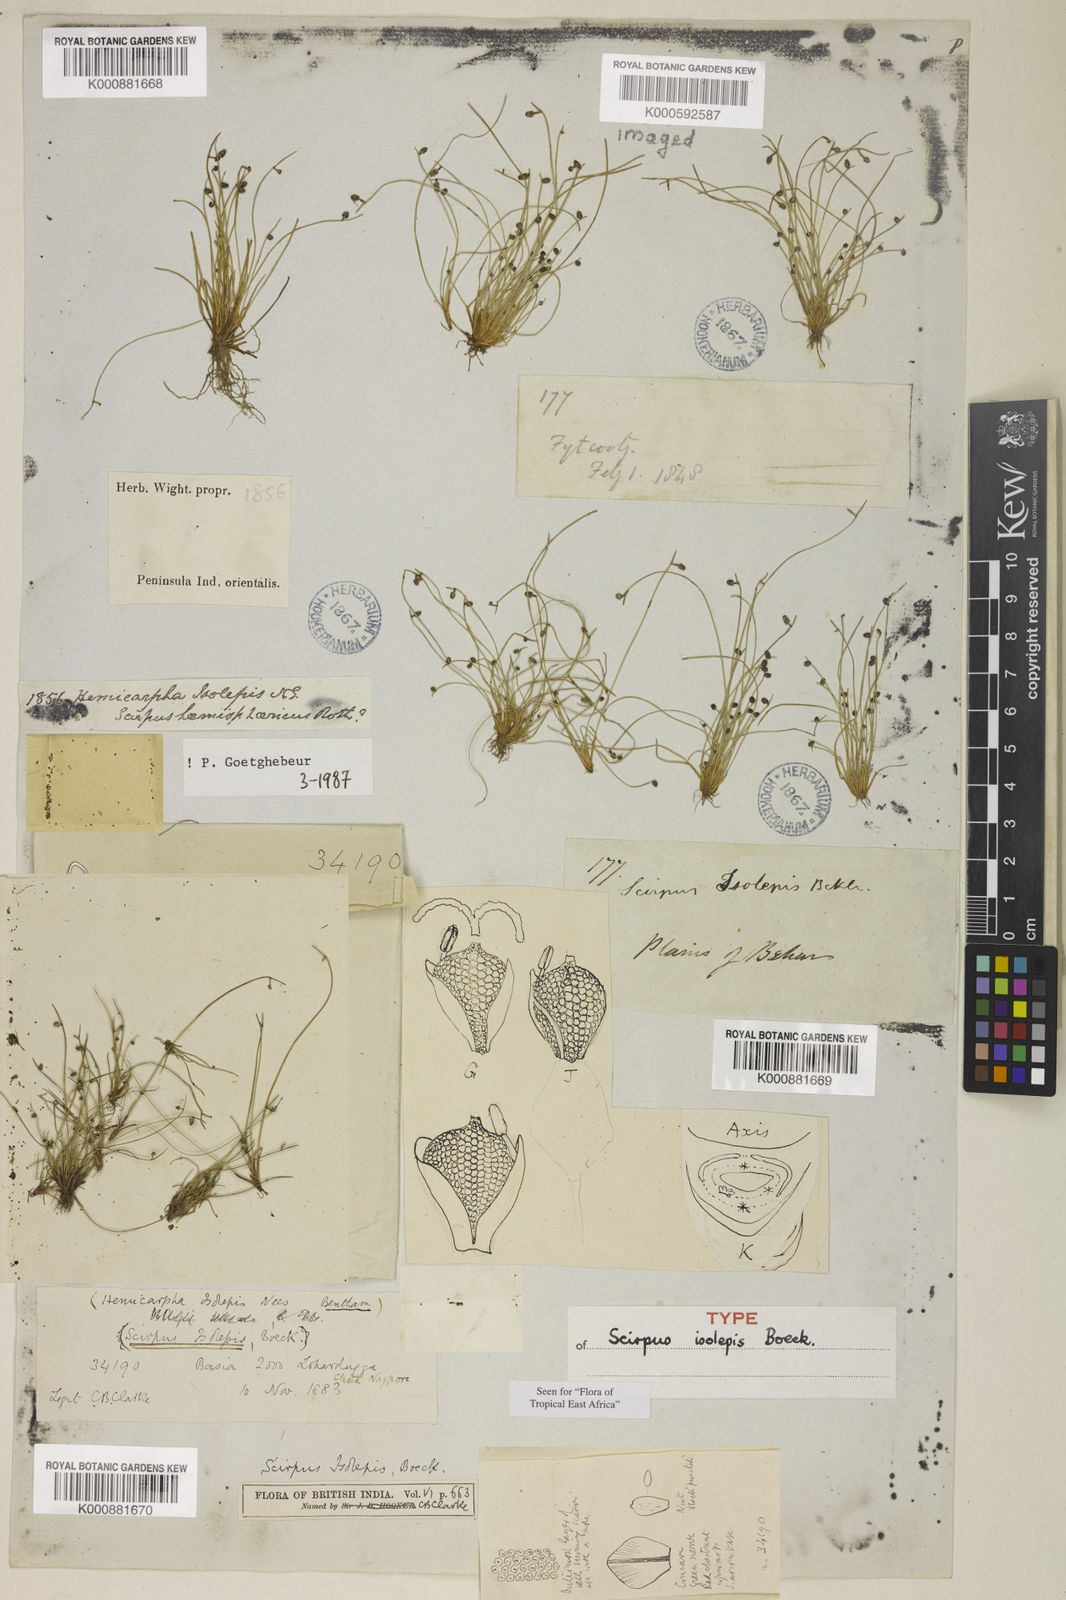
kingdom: Plantae
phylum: Tracheophyta
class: Liliopsida
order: Poales
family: Cyperaceae
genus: Cyperus
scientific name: Cyperus
